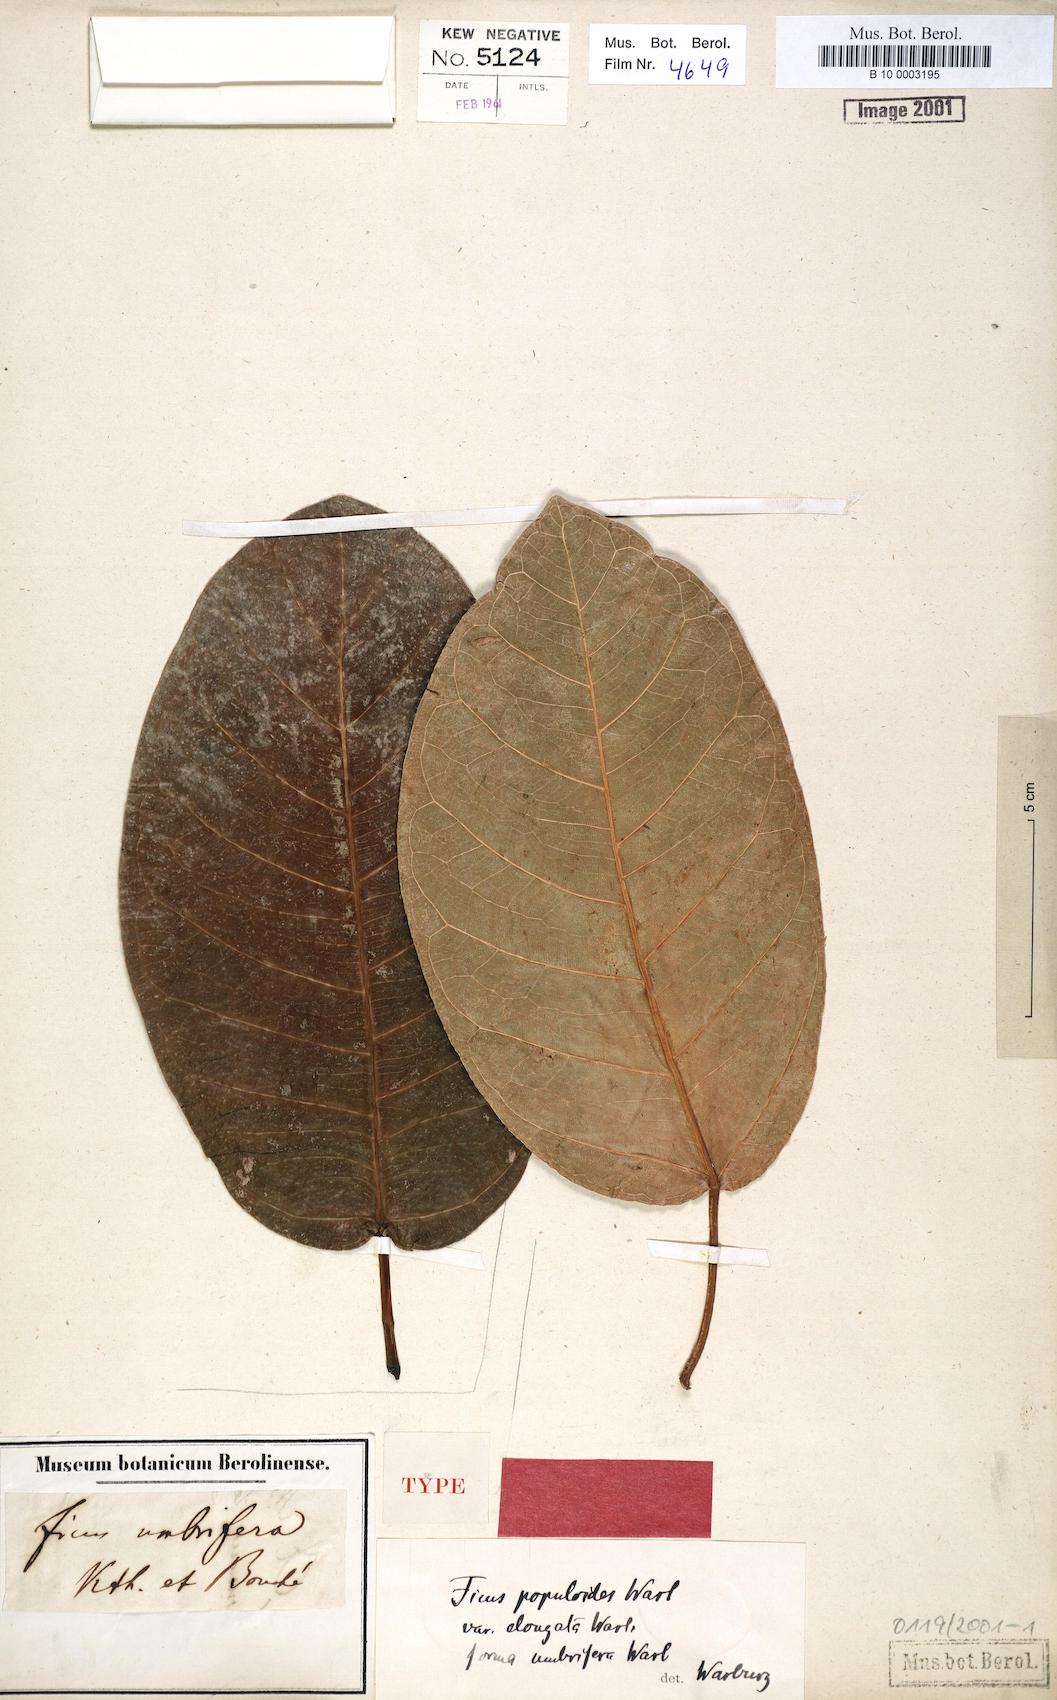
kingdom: Plantae
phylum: Tracheophyta
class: Magnoliopsida
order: Rosales
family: Moraceae
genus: Ficus
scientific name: Ficus sundaica
